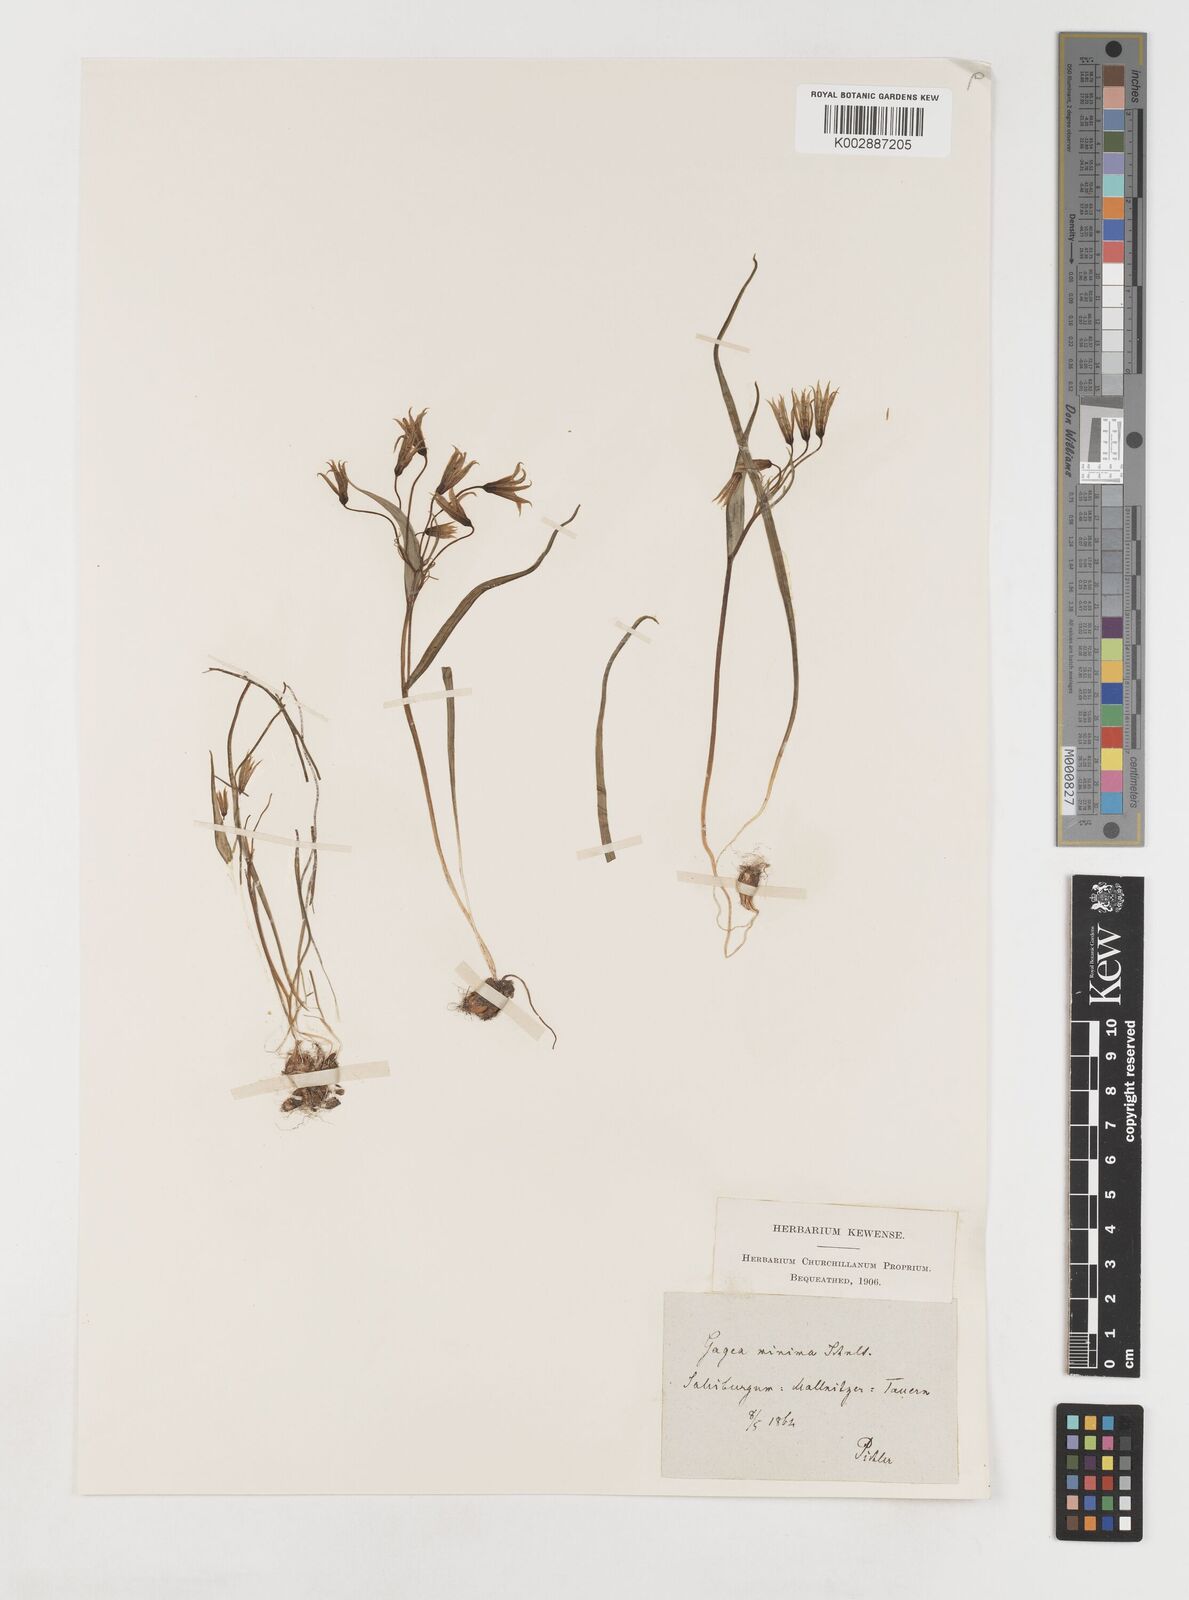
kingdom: Plantae
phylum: Tracheophyta
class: Liliopsida
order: Liliales
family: Liliaceae
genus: Gagea
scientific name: Gagea minima
